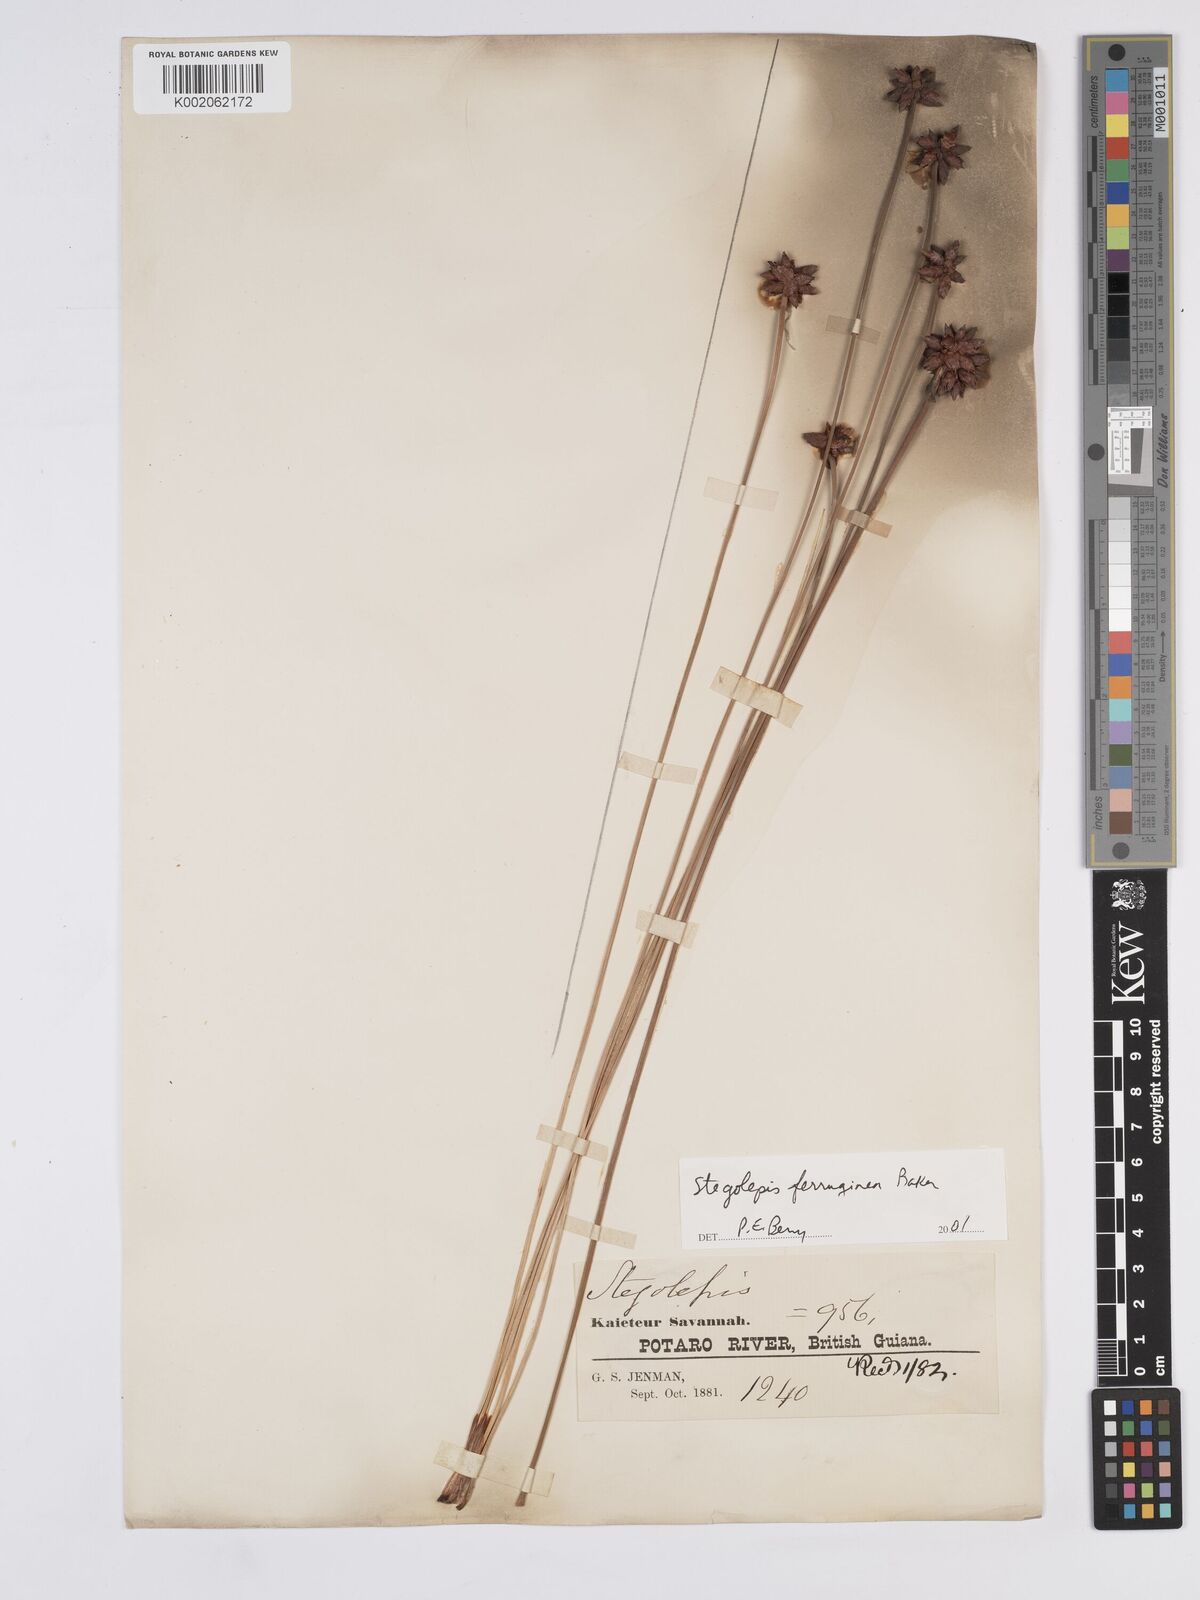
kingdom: Plantae
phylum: Tracheophyta
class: Liliopsida
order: Poales
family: Rapateaceae
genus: Stegolepis
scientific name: Stegolepis ferruginea
